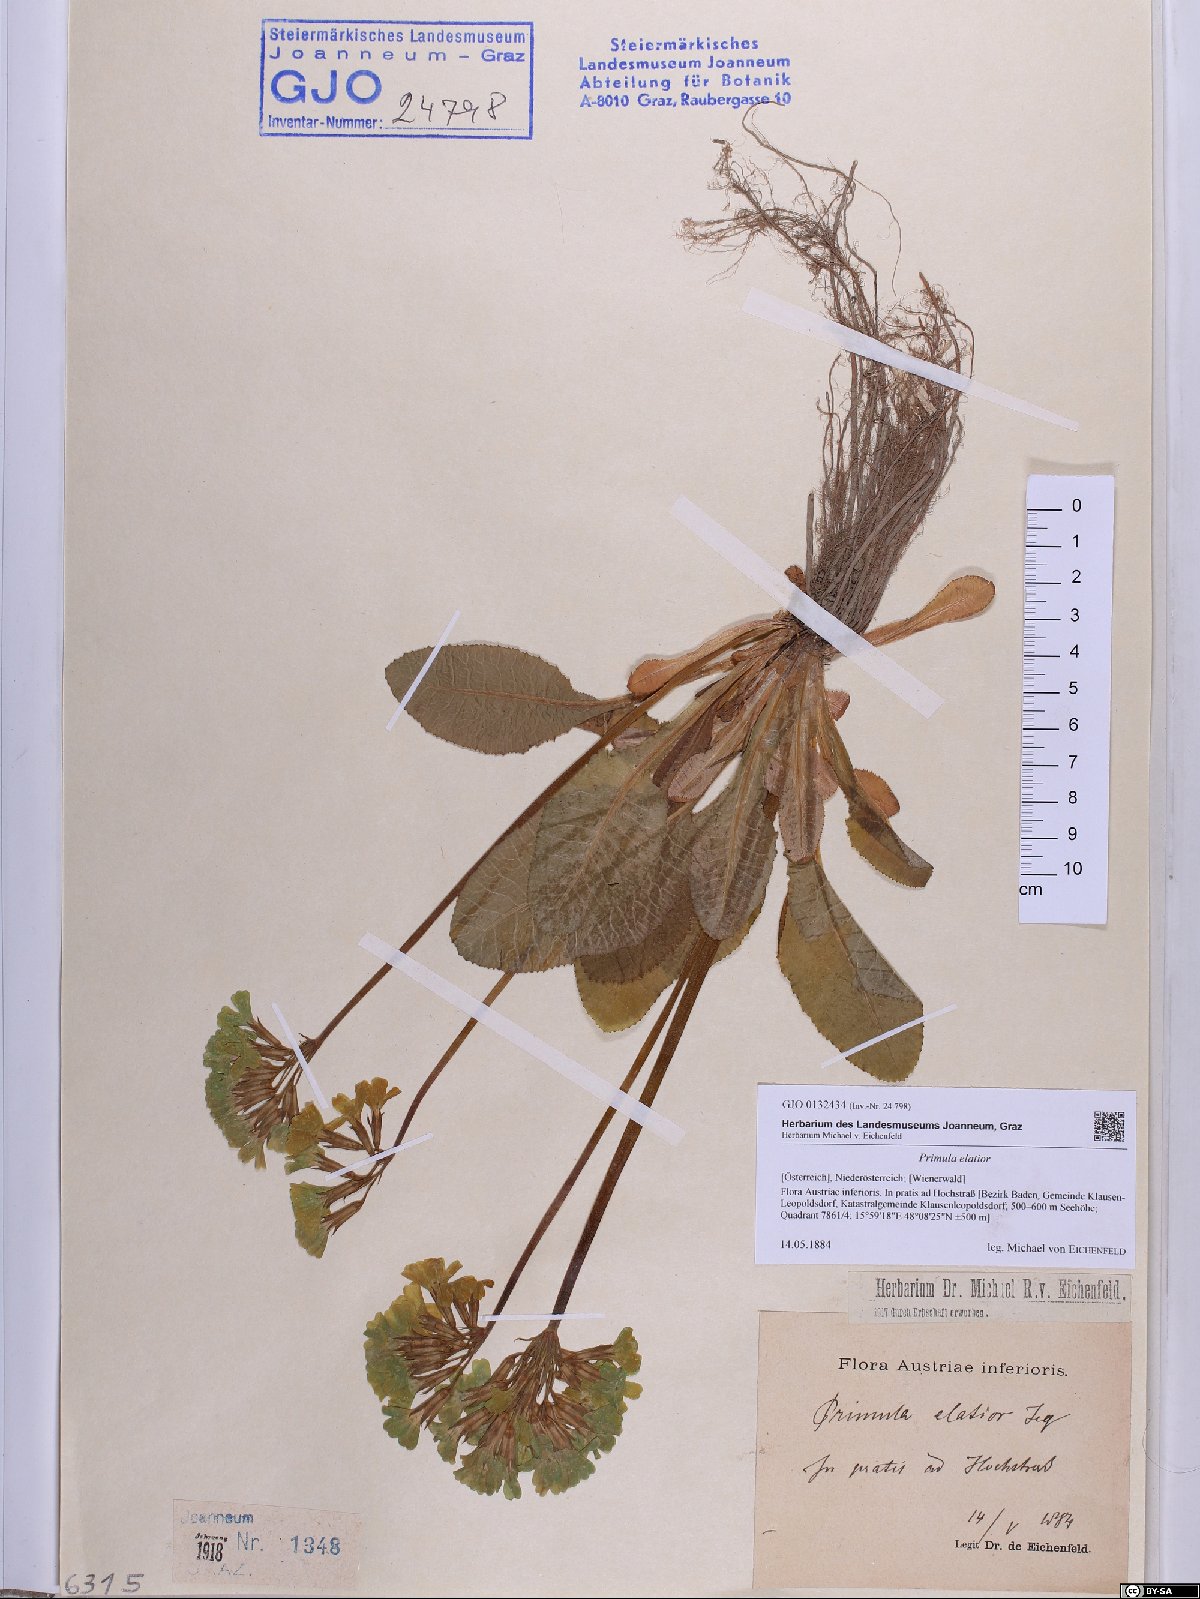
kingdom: Plantae
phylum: Tracheophyta
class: Magnoliopsida
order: Ericales
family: Primulaceae
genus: Primula
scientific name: Primula elatior
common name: Oxlip
